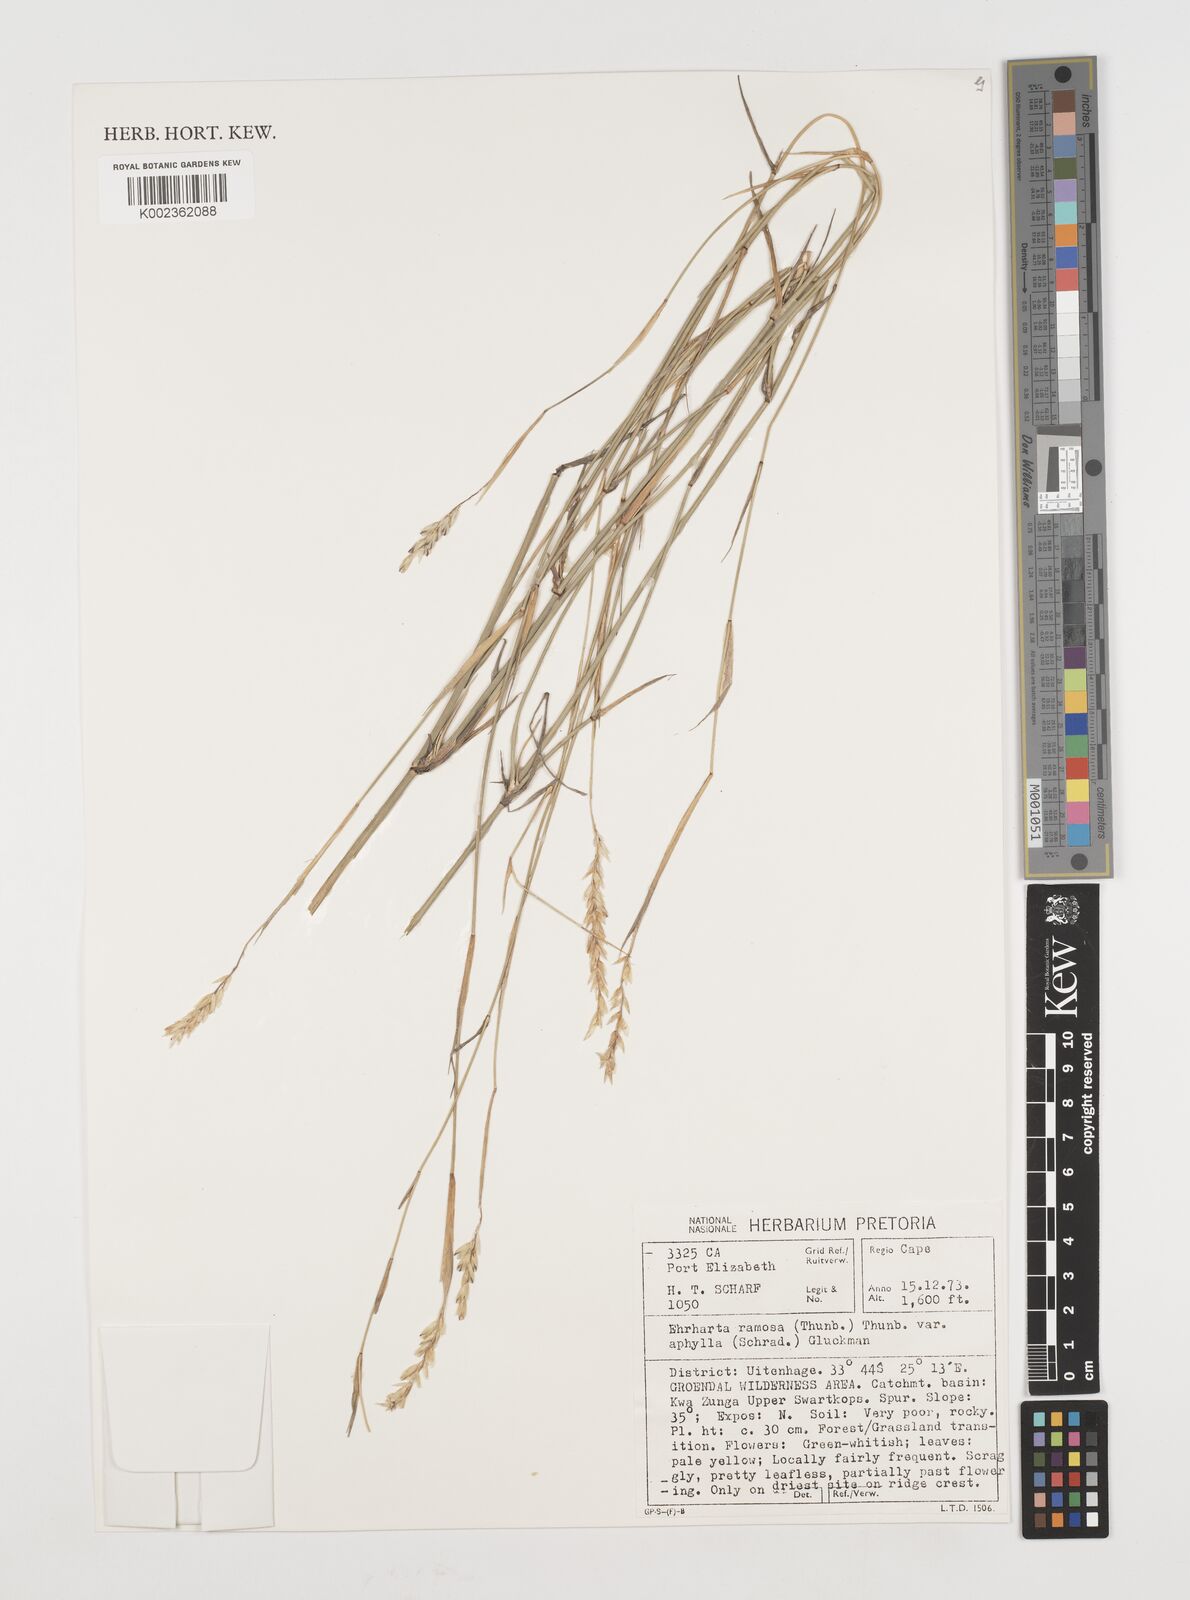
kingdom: Plantae
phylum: Tracheophyta
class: Liliopsida
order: Poales
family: Poaceae
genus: Ehrharta
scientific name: Ehrharta digyna
